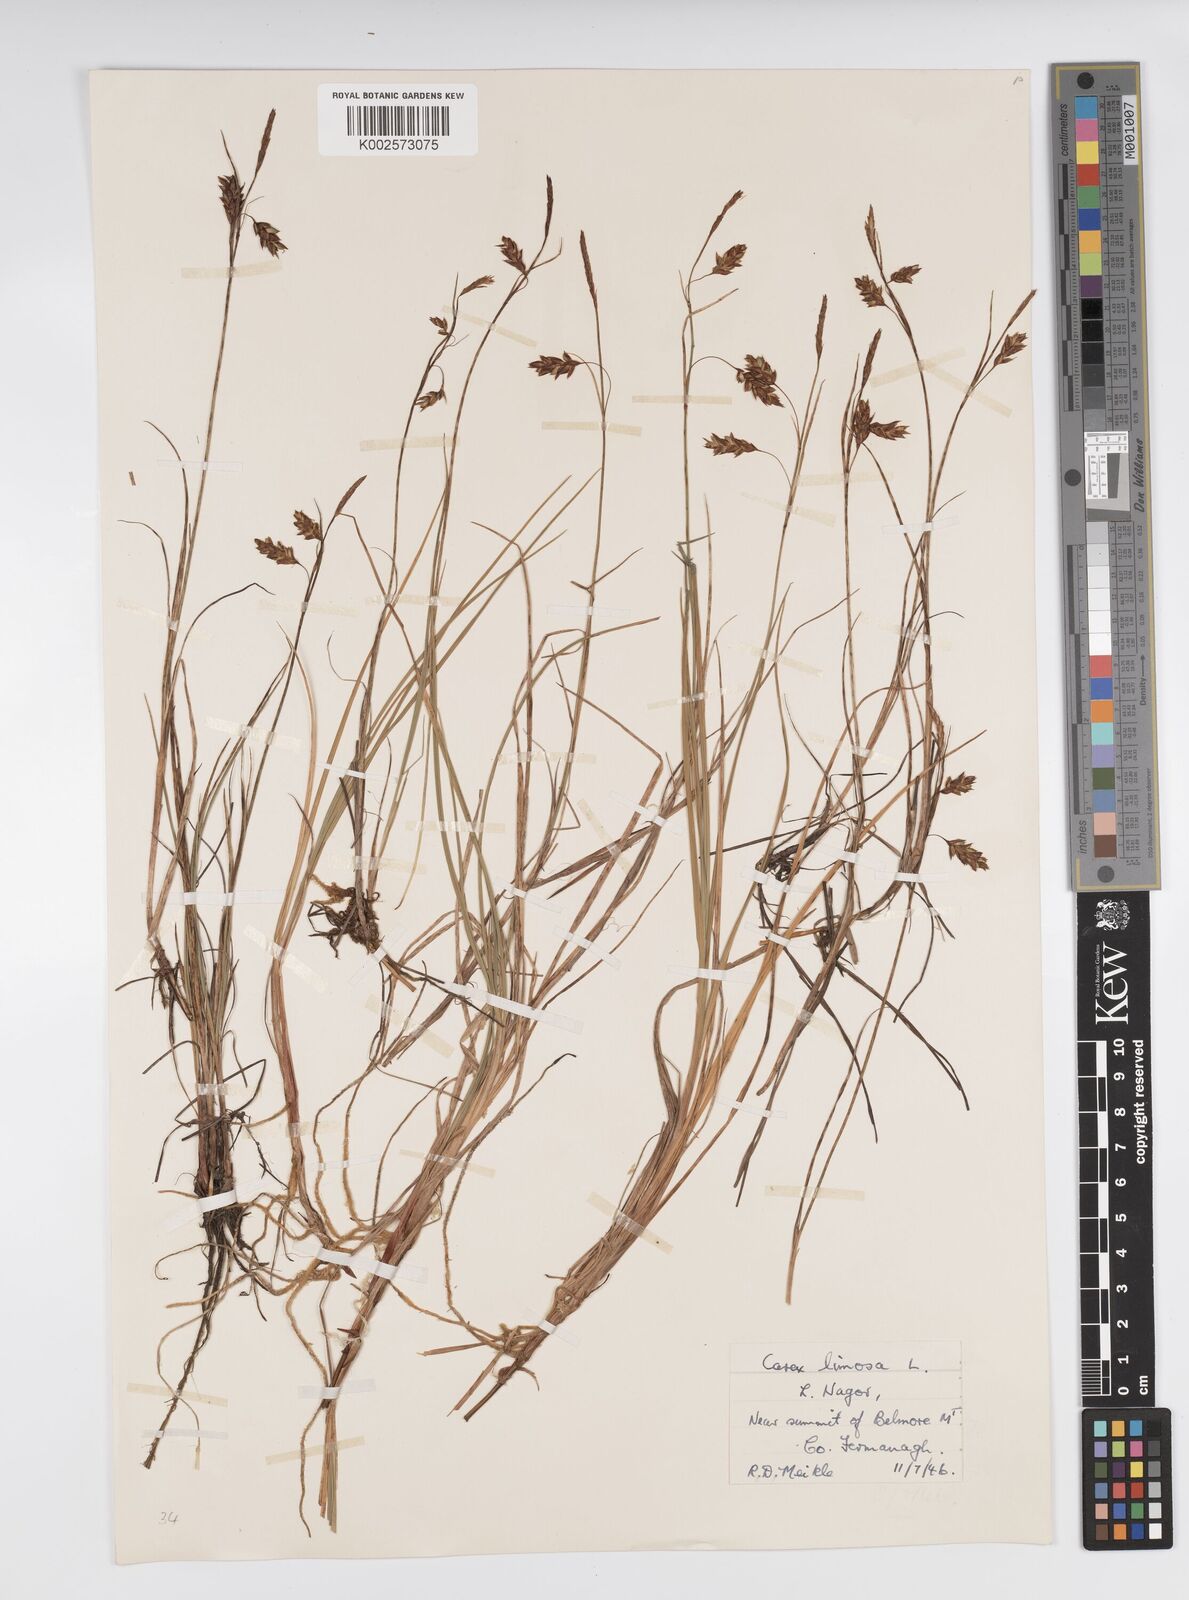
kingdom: Plantae
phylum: Tracheophyta
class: Liliopsida
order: Poales
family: Cyperaceae
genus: Carex
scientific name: Carex limosa
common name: Bog sedge
